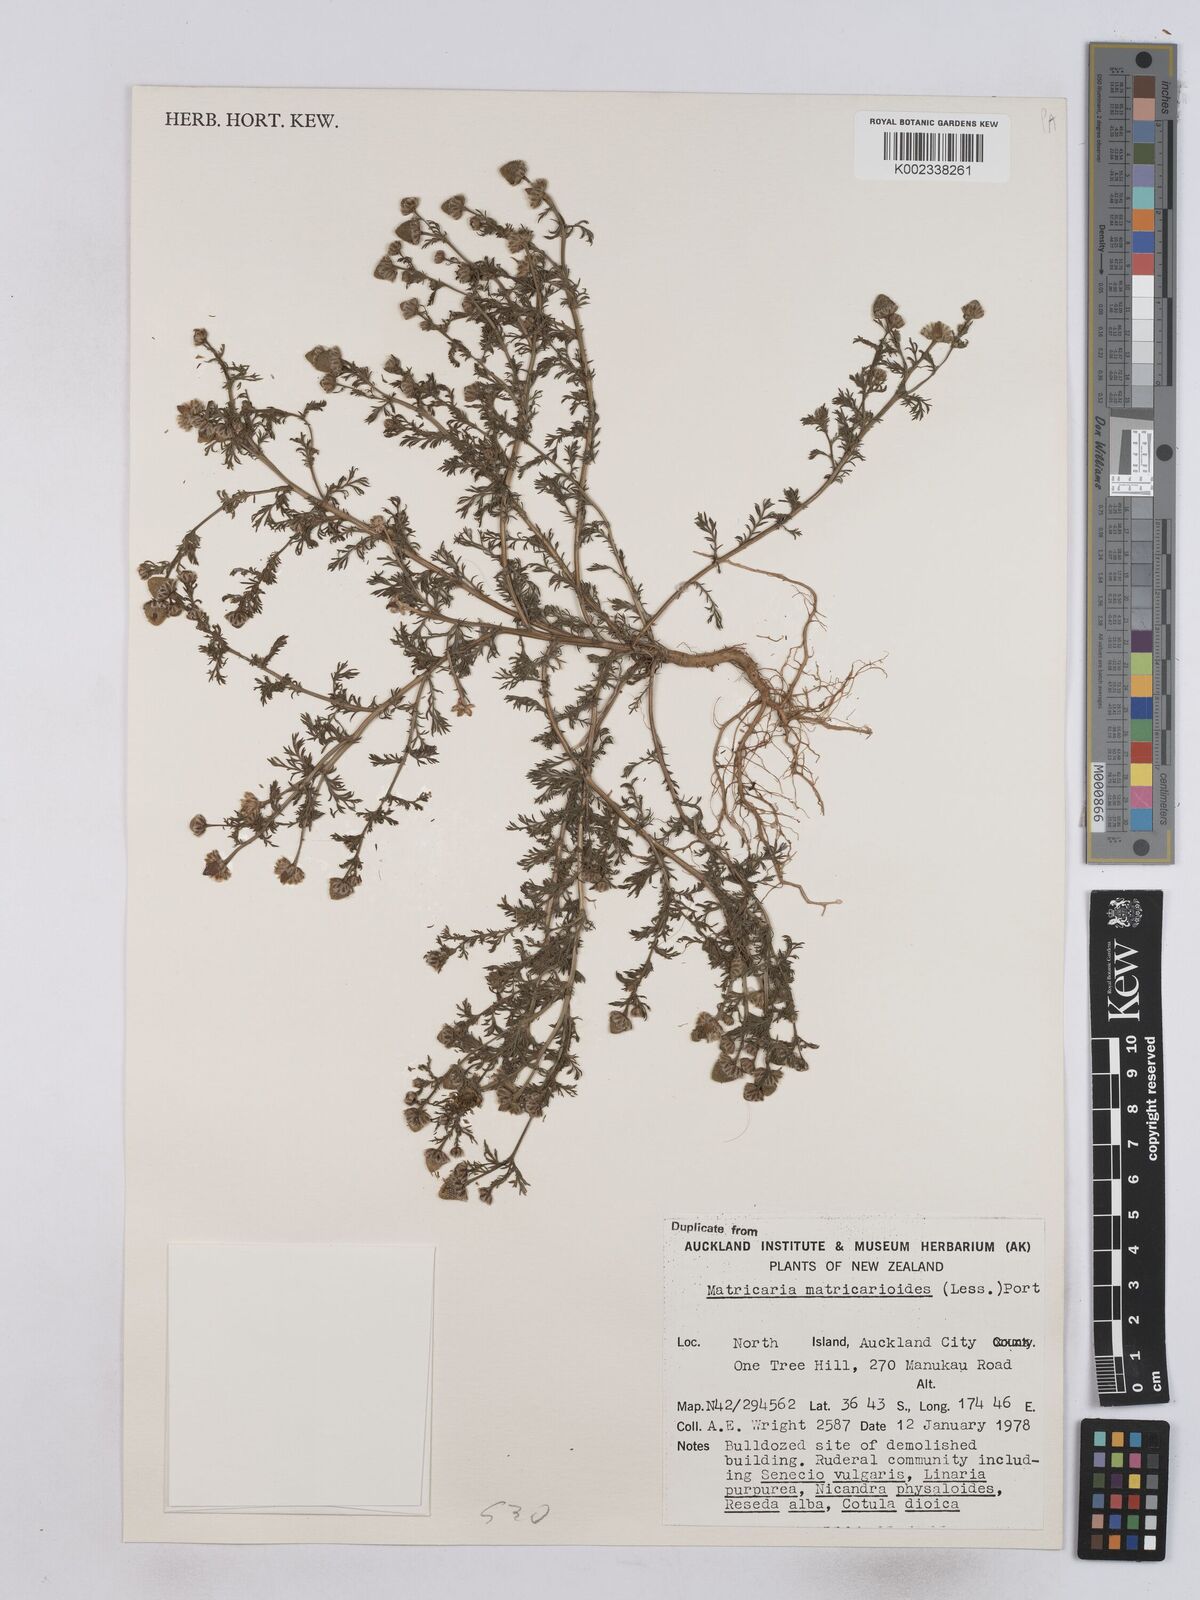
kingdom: Plantae
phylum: Tracheophyta
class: Magnoliopsida
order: Asterales
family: Asteraceae
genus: Matricaria
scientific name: Matricaria discoidea
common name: Disc mayweed
